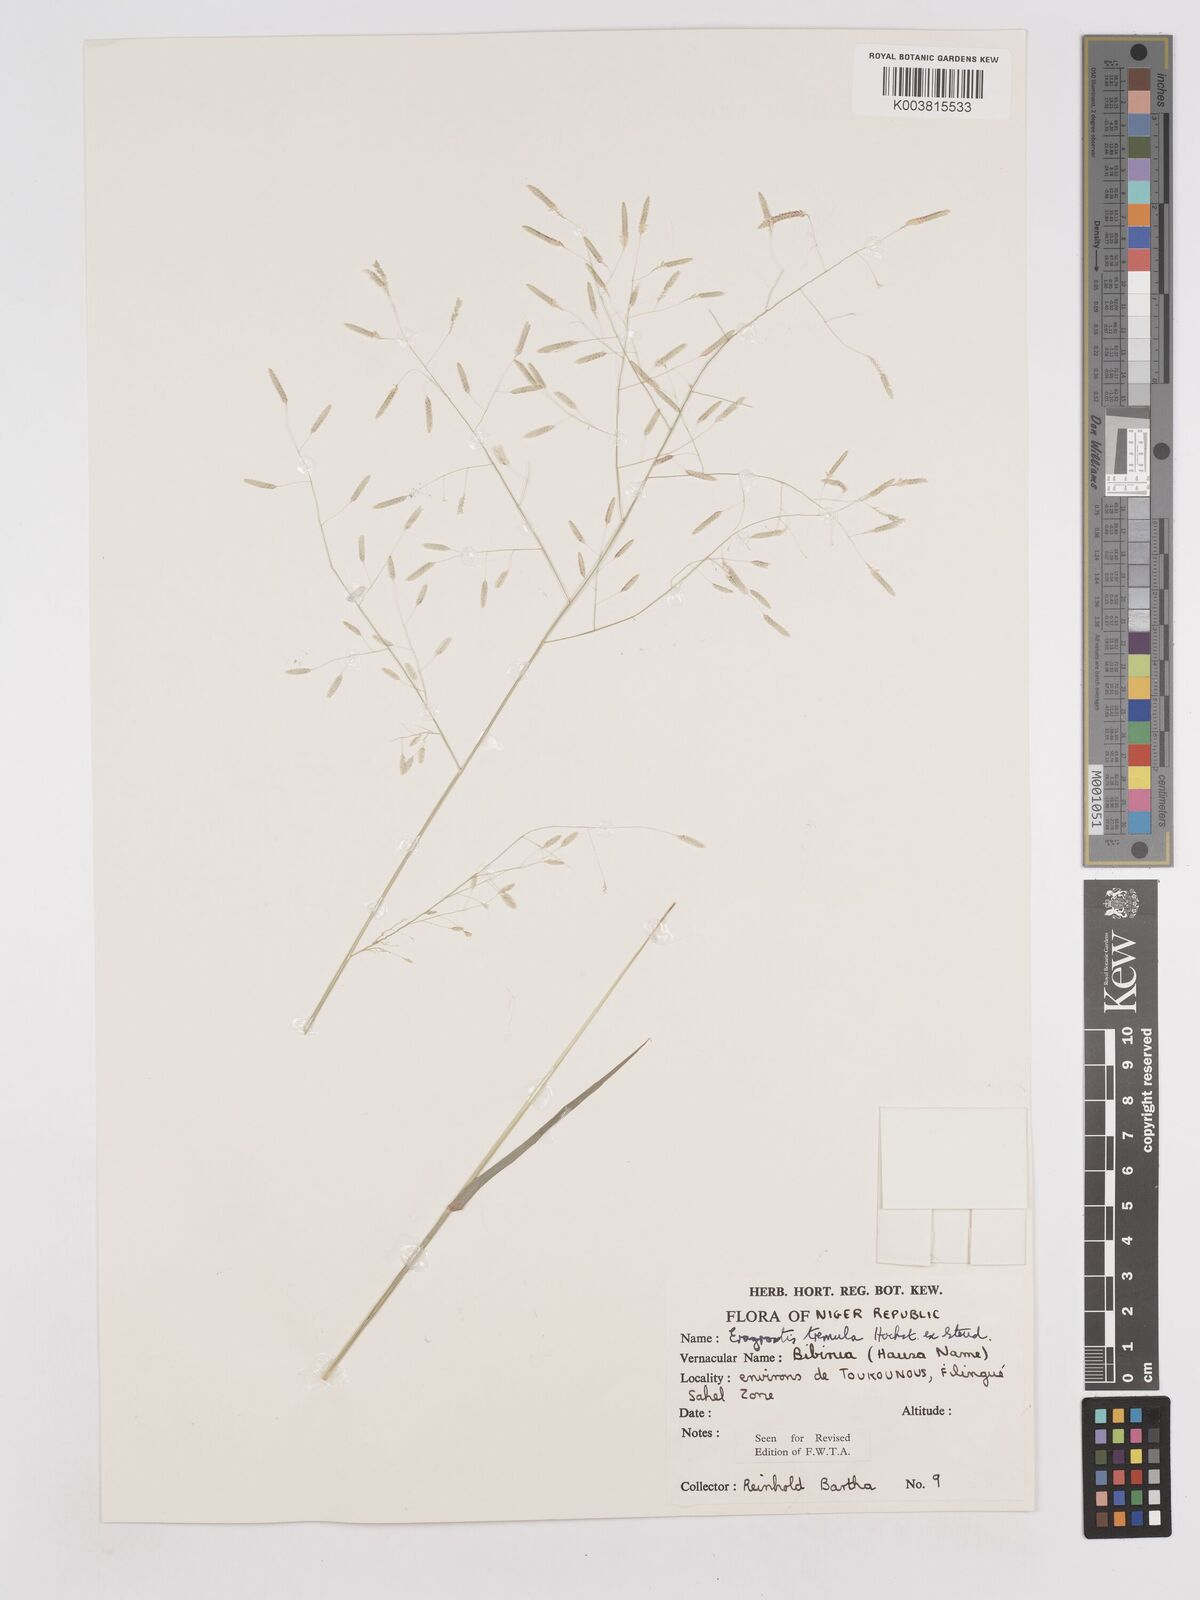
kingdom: Plantae
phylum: Tracheophyta
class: Liliopsida
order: Poales
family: Poaceae
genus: Eragrostis
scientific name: Eragrostis tremula
